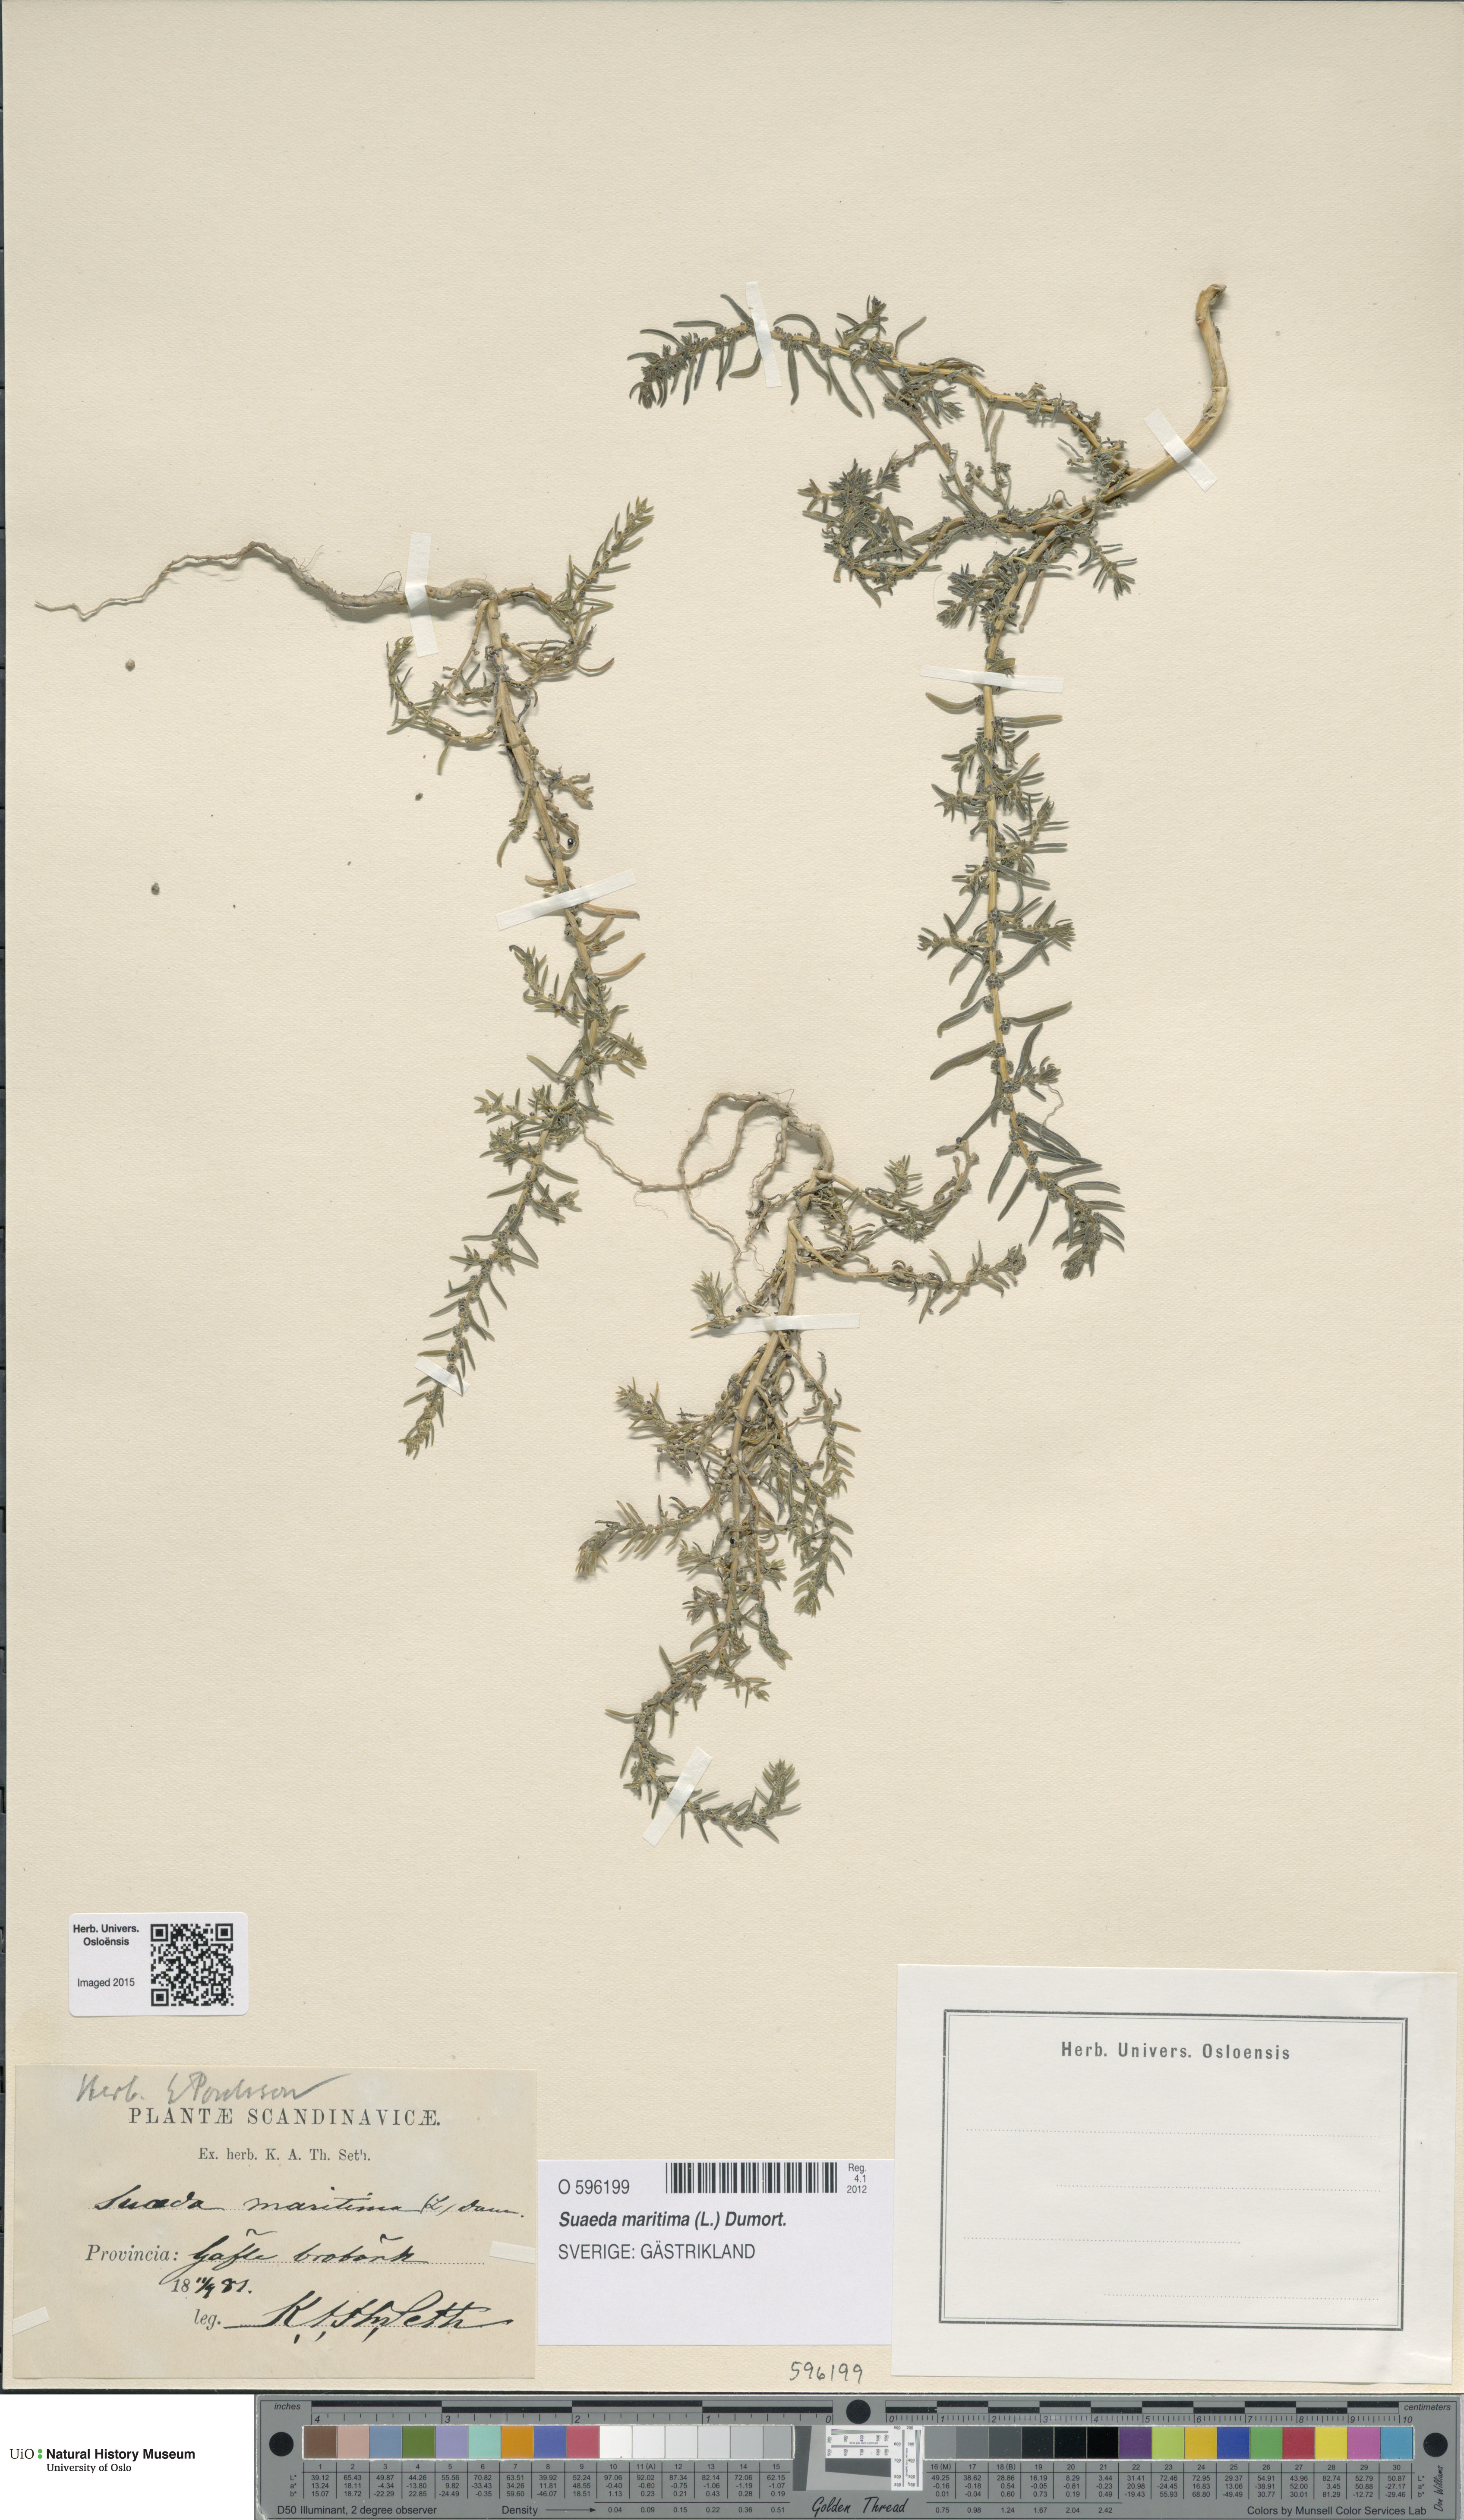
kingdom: Plantae
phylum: Tracheophyta
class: Magnoliopsida
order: Caryophyllales
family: Amaranthaceae
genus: Suaeda
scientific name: Suaeda maritima
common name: Annual sea-blite
